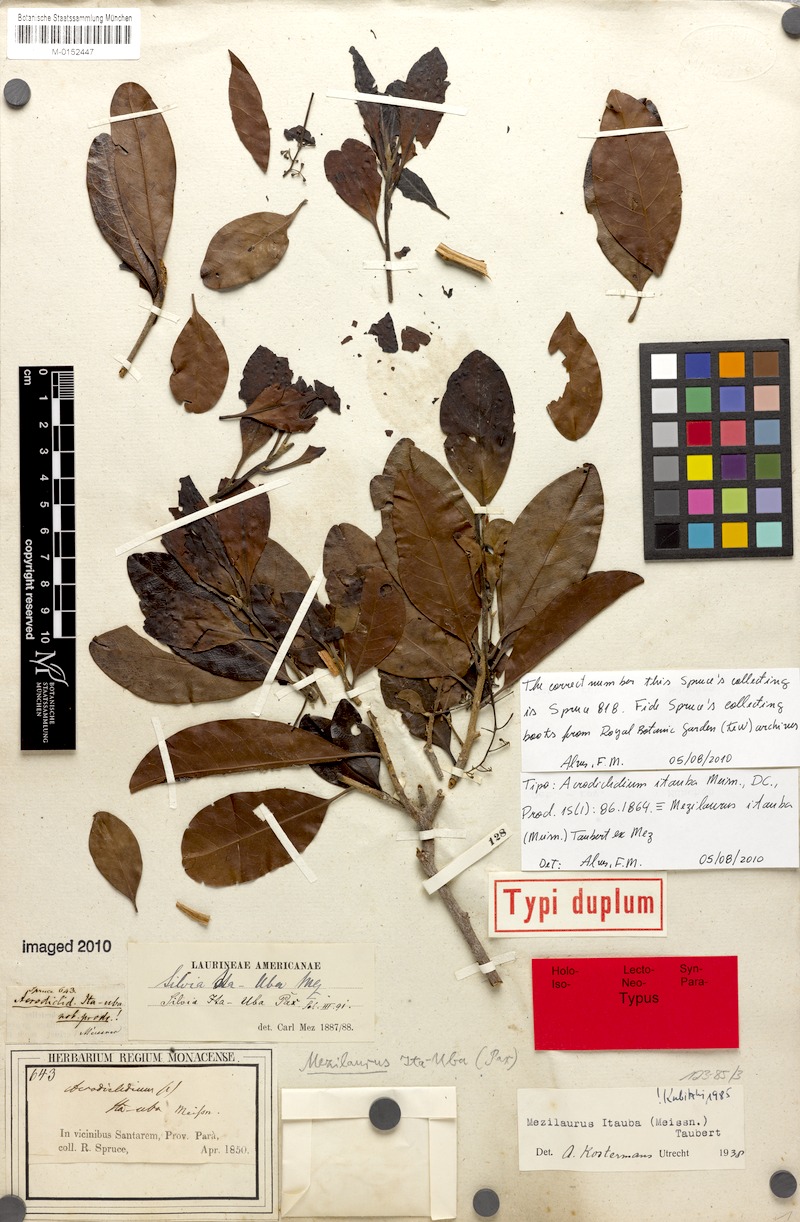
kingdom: Plantae
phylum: Tracheophyta
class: Magnoliopsida
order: Laurales
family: Lauraceae
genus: Mezilaurus
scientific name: Mezilaurus ita-uba
